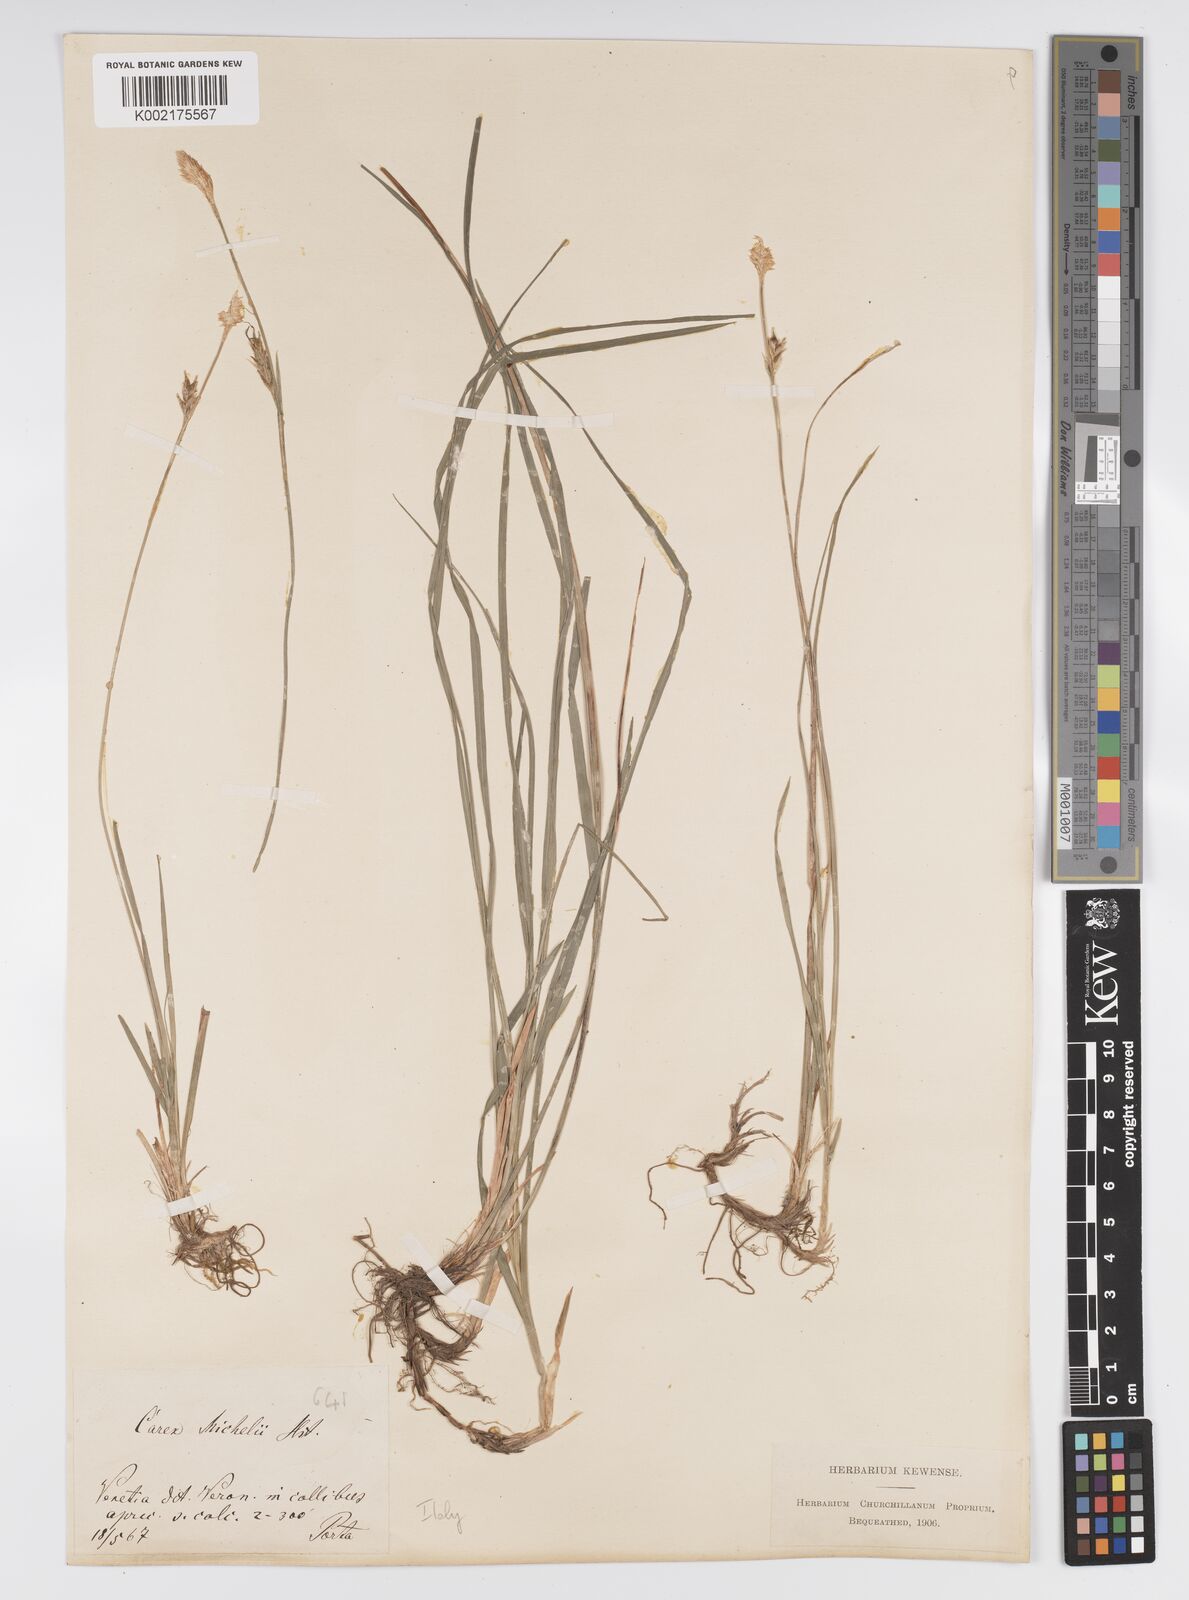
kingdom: Plantae
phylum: Tracheophyta
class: Liliopsida
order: Poales
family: Cyperaceae
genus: Carex
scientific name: Carex michelii
